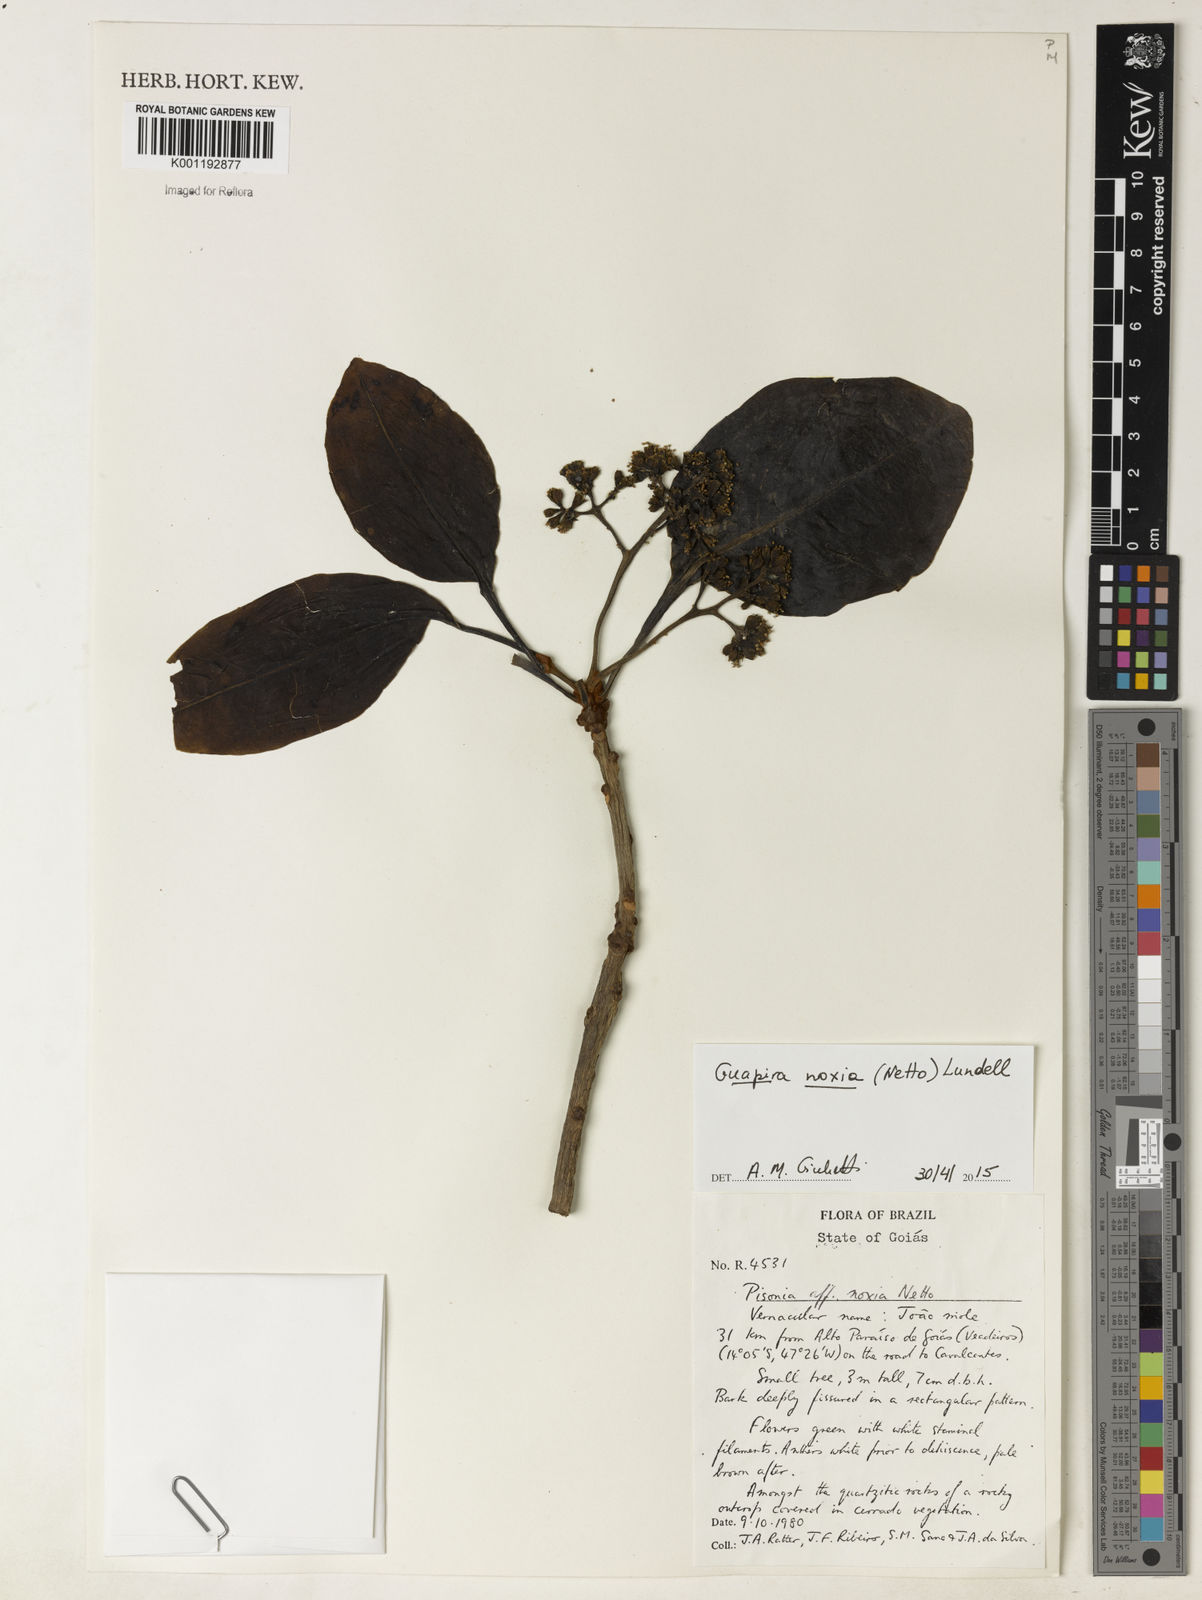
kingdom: Plantae
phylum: Tracheophyta
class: Magnoliopsida
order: Caryophyllales
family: Nyctaginaceae
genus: Guapira
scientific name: Guapira noxia
